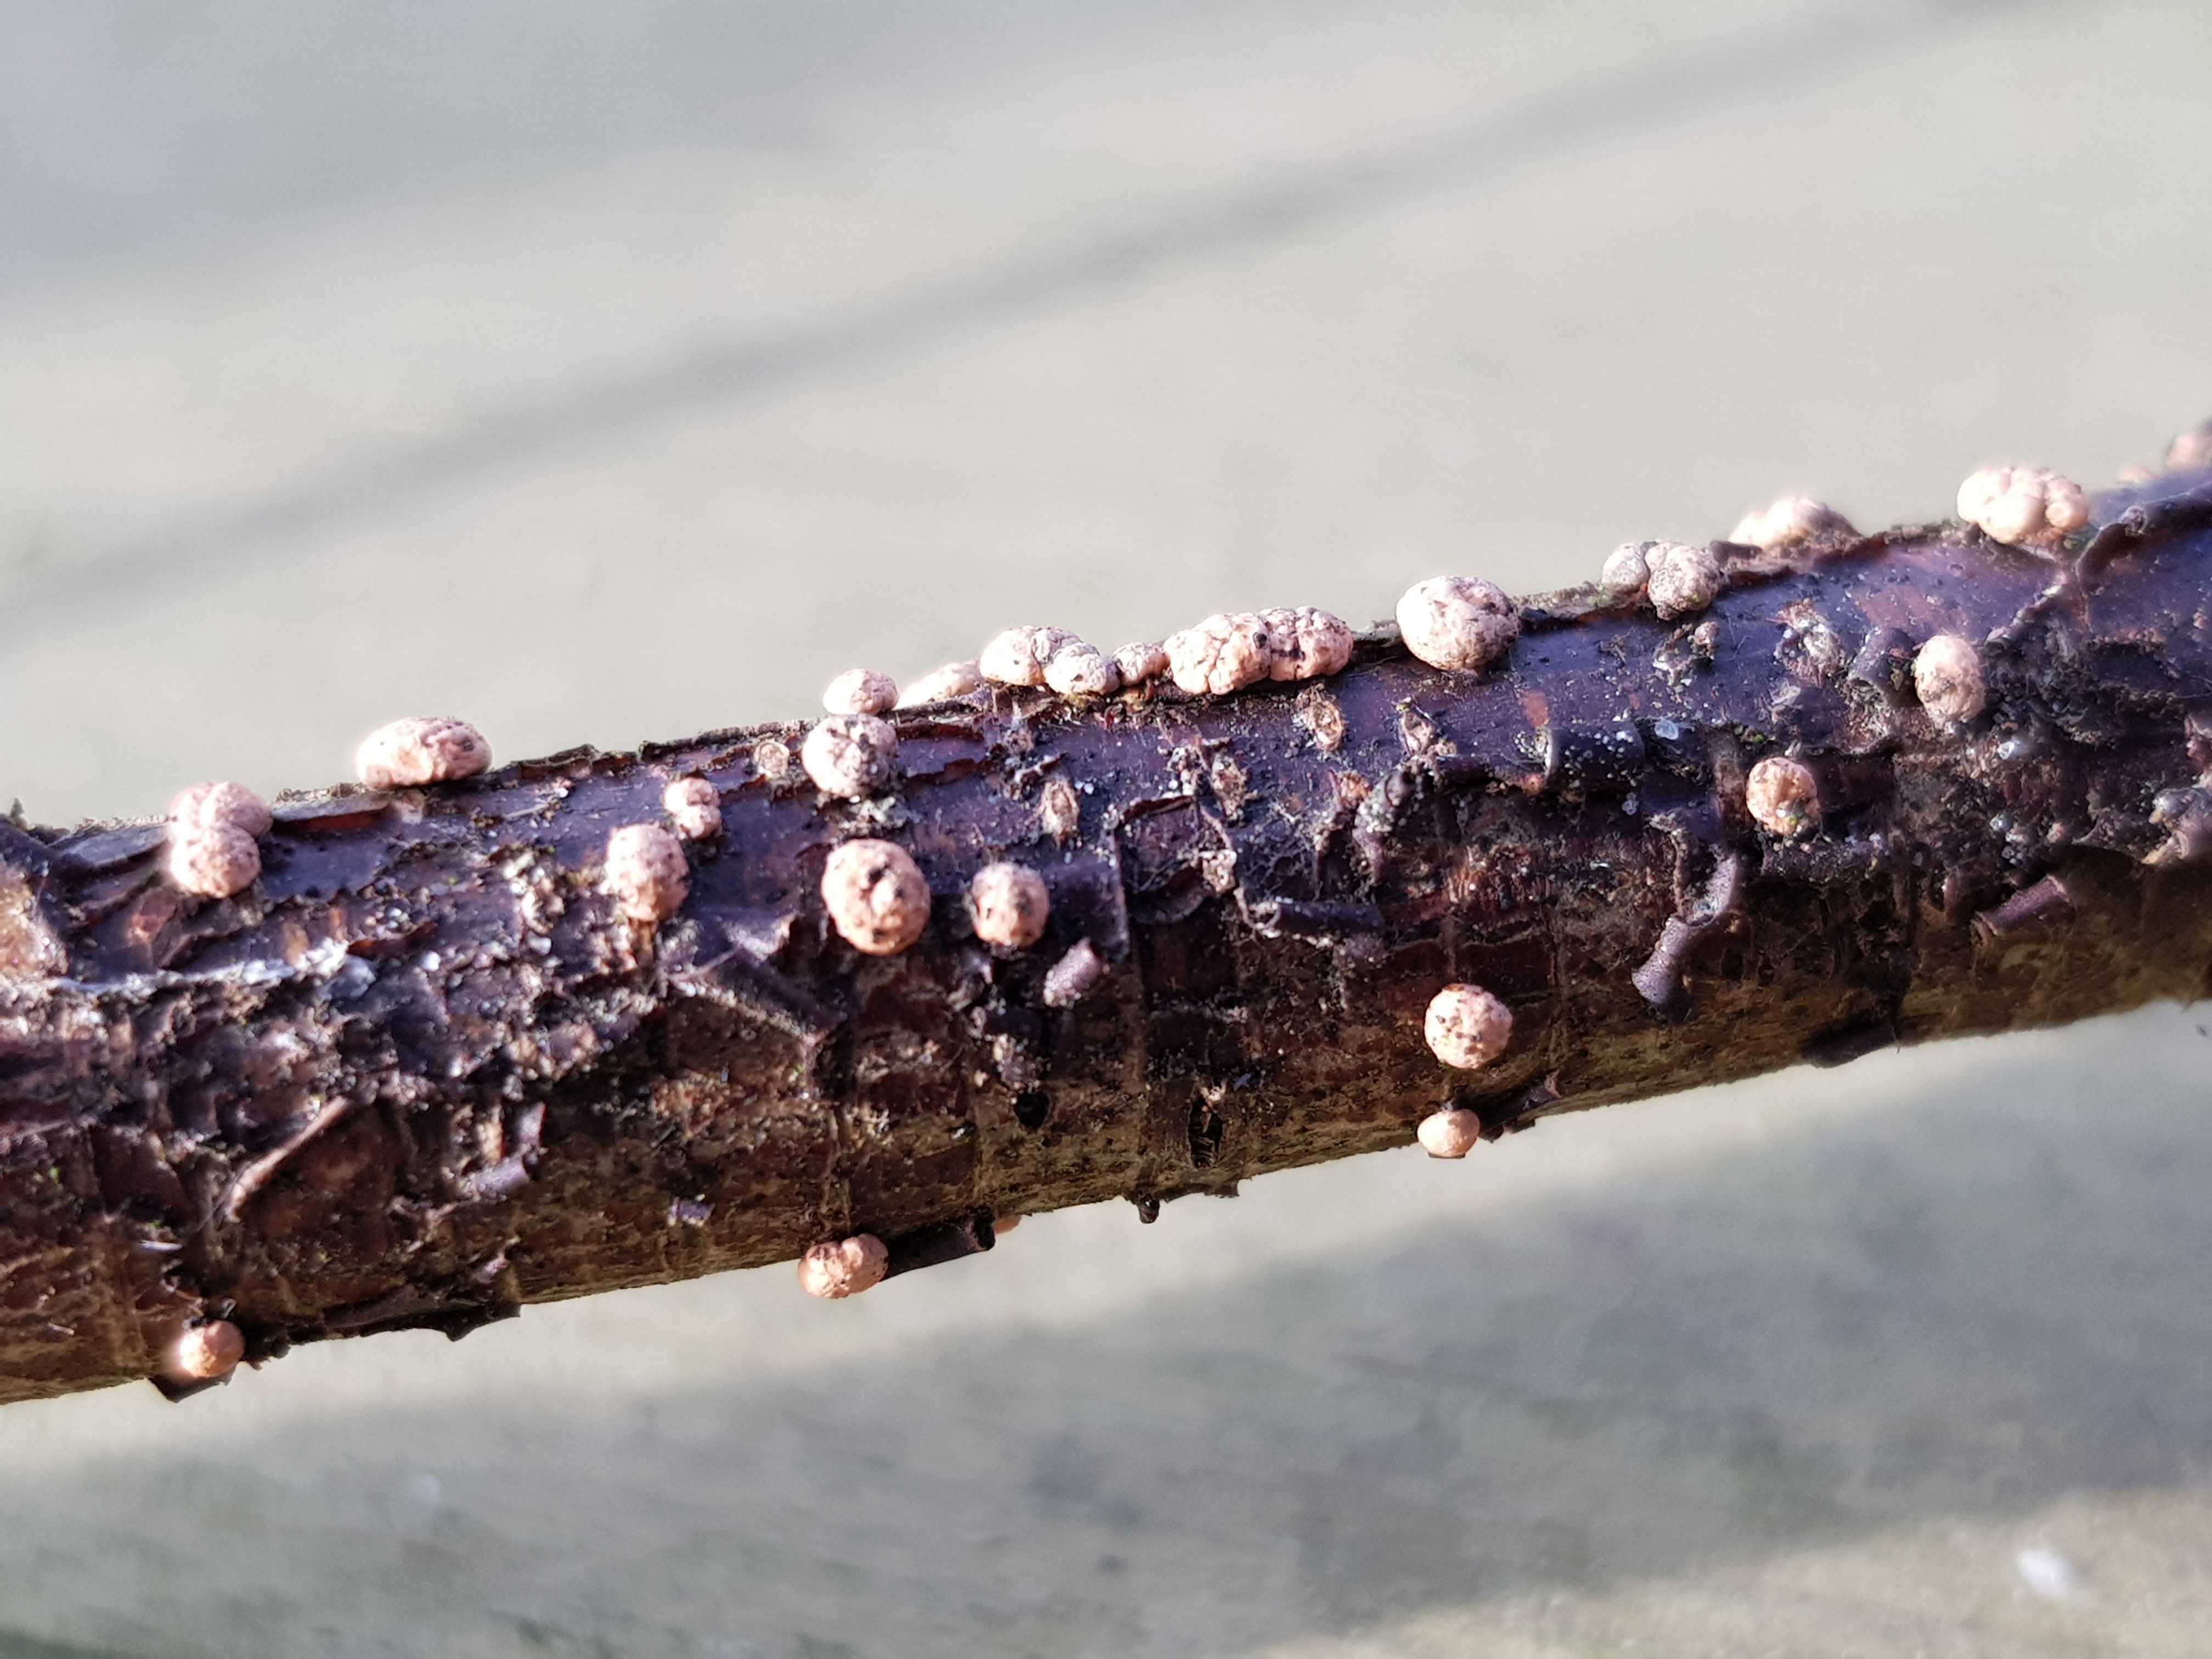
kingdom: Fungi
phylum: Ascomycota
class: Sordariomycetes
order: Hypocreales
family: Nectriaceae
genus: Nectria
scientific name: Nectria cinnabarina
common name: almindelig cinnobersvamp
